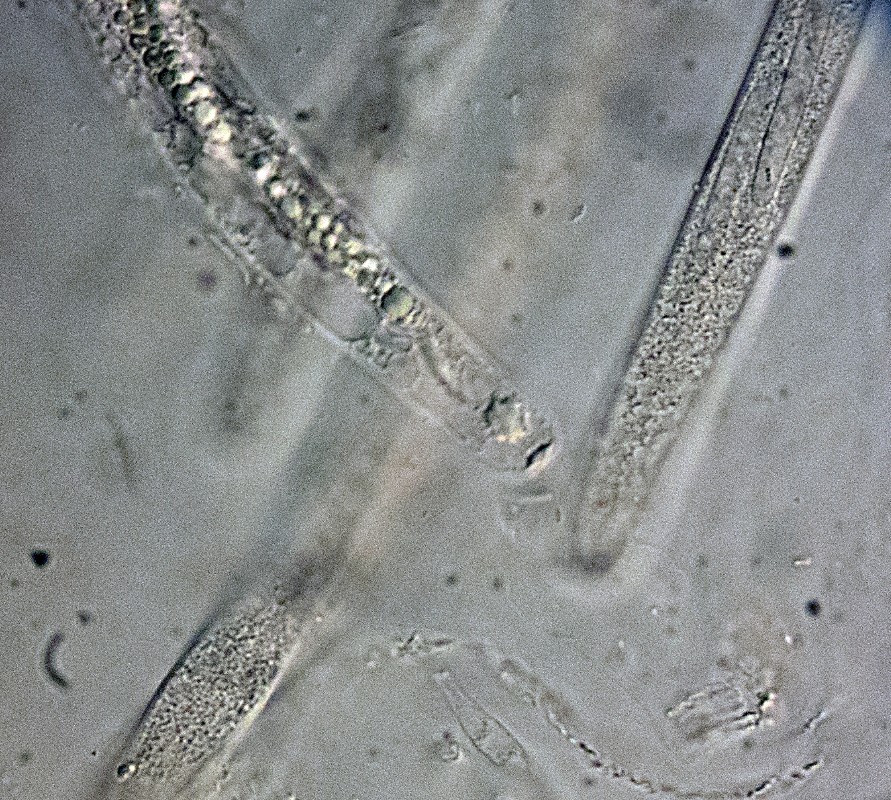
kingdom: Fungi
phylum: Ascomycota
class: Sordariomycetes
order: Sordariales
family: Lasiosphaeridaceae
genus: Lasiosphaeris
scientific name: Lasiosphaeris
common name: kernesvamp
